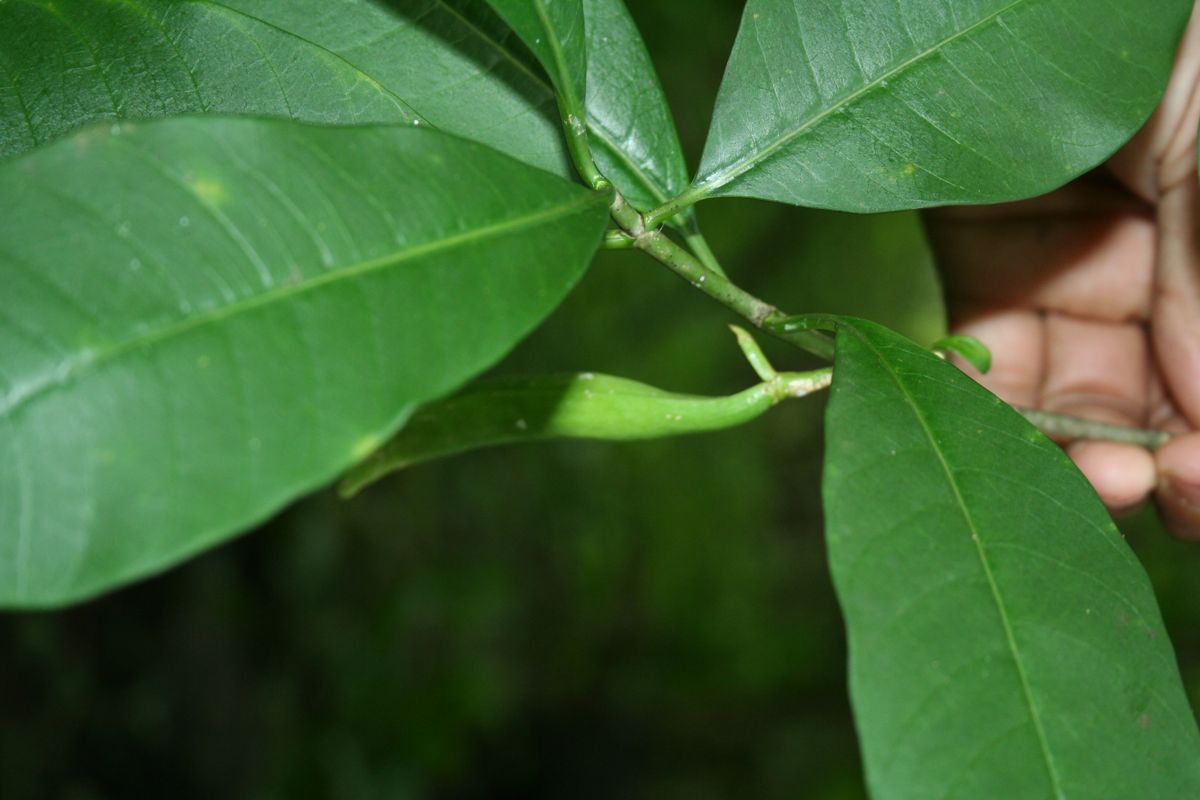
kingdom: Plantae
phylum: Tracheophyta
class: Magnoliopsida
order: Gentianales
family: Apocynaceae
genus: Tabernaemontana
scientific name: Tabernaemontana amygdalifolia
